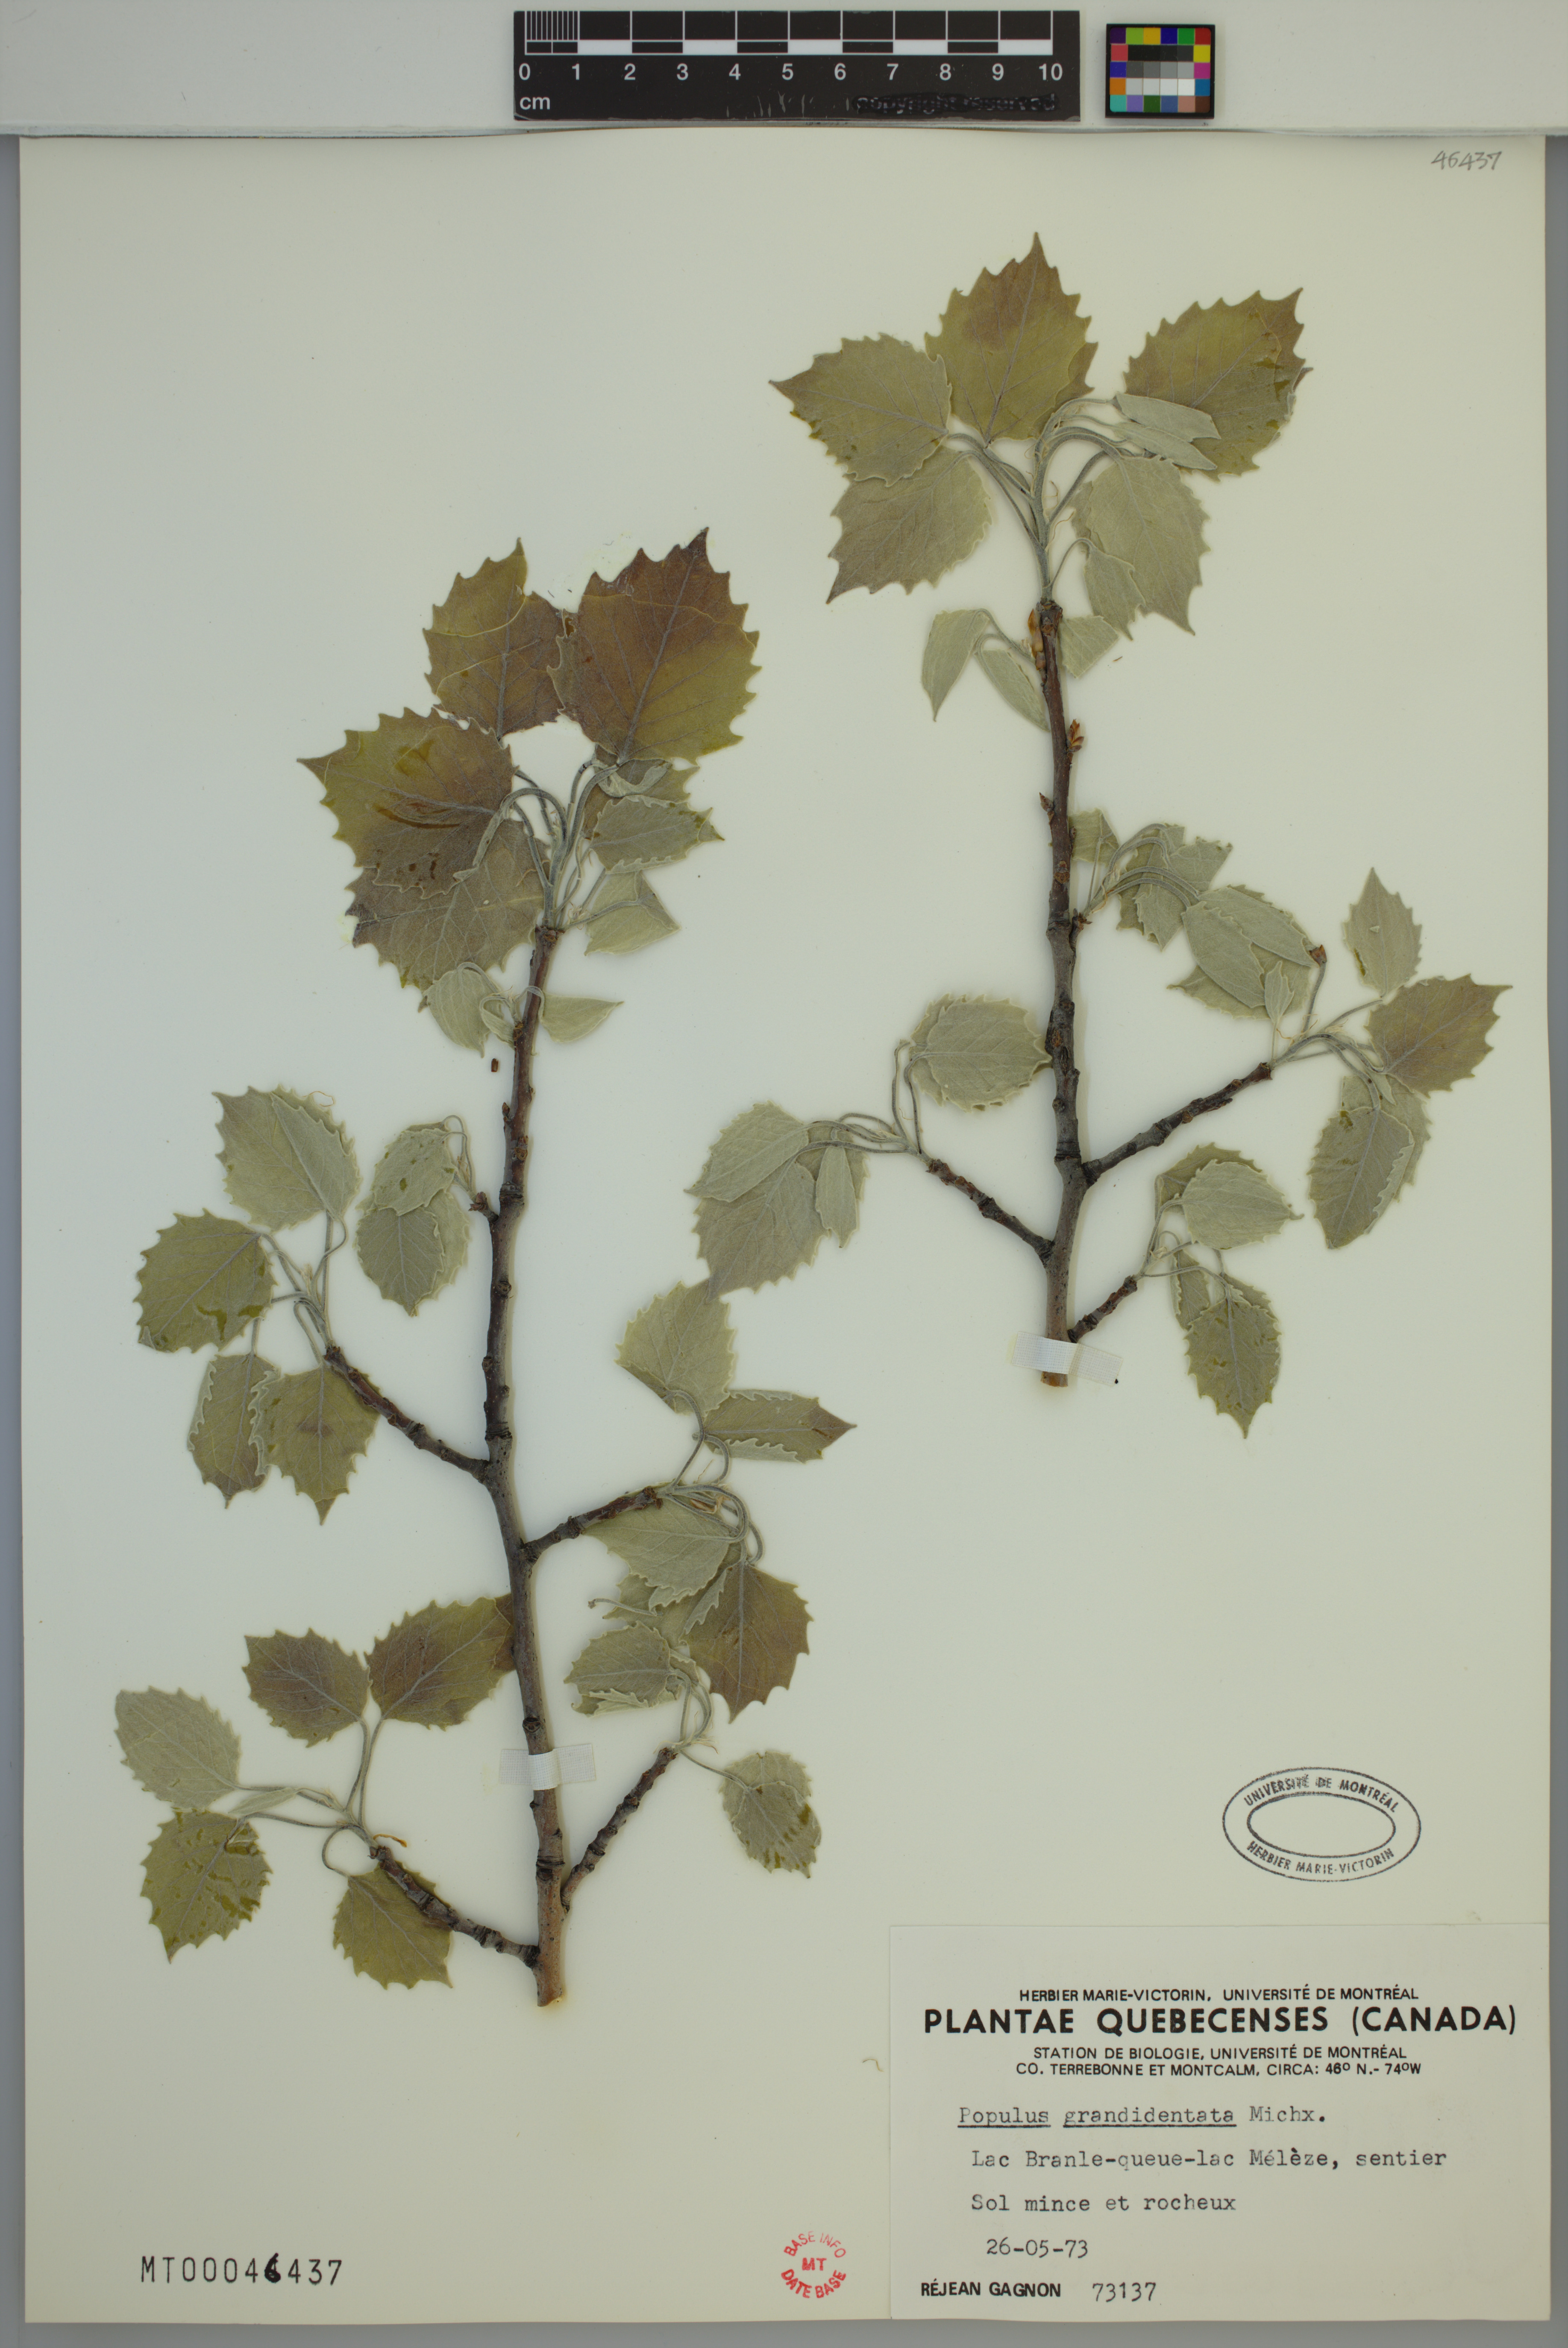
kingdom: Plantae
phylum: Tracheophyta
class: Magnoliopsida
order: Malpighiales
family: Salicaceae
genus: Populus
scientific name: Populus grandidentata
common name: Bigtooth aspen
